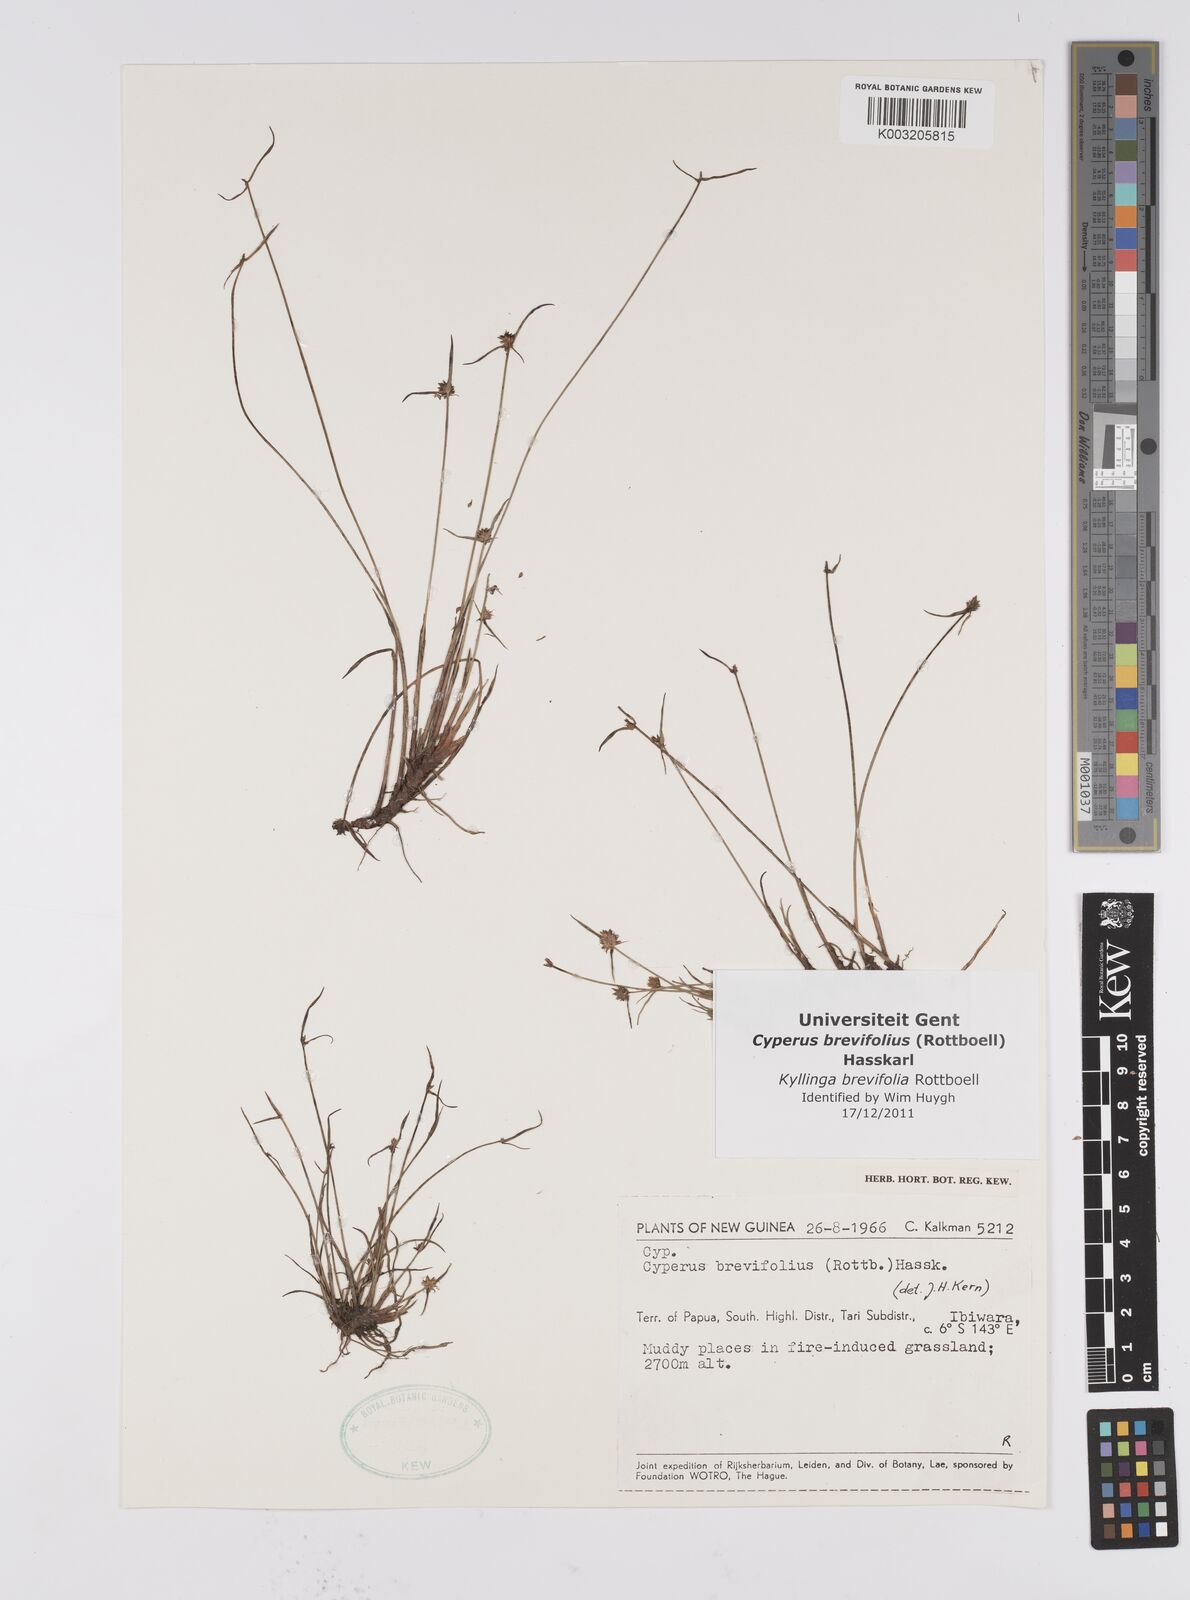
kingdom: Plantae
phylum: Tracheophyta
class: Liliopsida
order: Poales
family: Cyperaceae
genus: Cyperus
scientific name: Cyperus brevifolius
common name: Globe kyllinga
